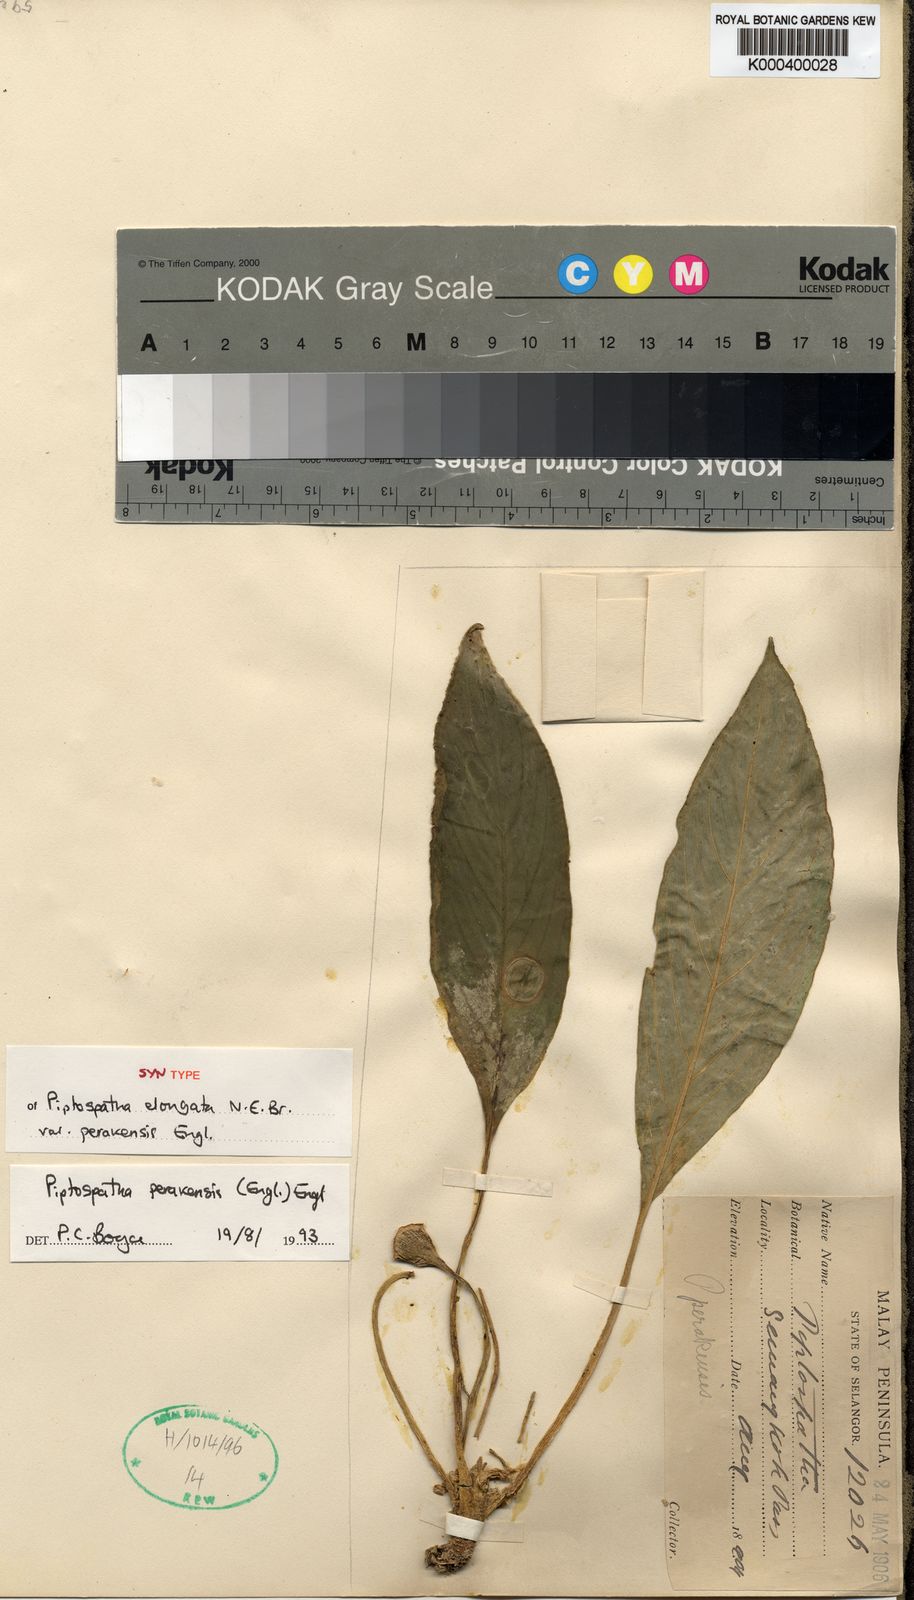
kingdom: Plantae
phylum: Tracheophyta
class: Liliopsida
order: Alismatales
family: Araceae
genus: Kiewia
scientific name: Kiewia perakensis
